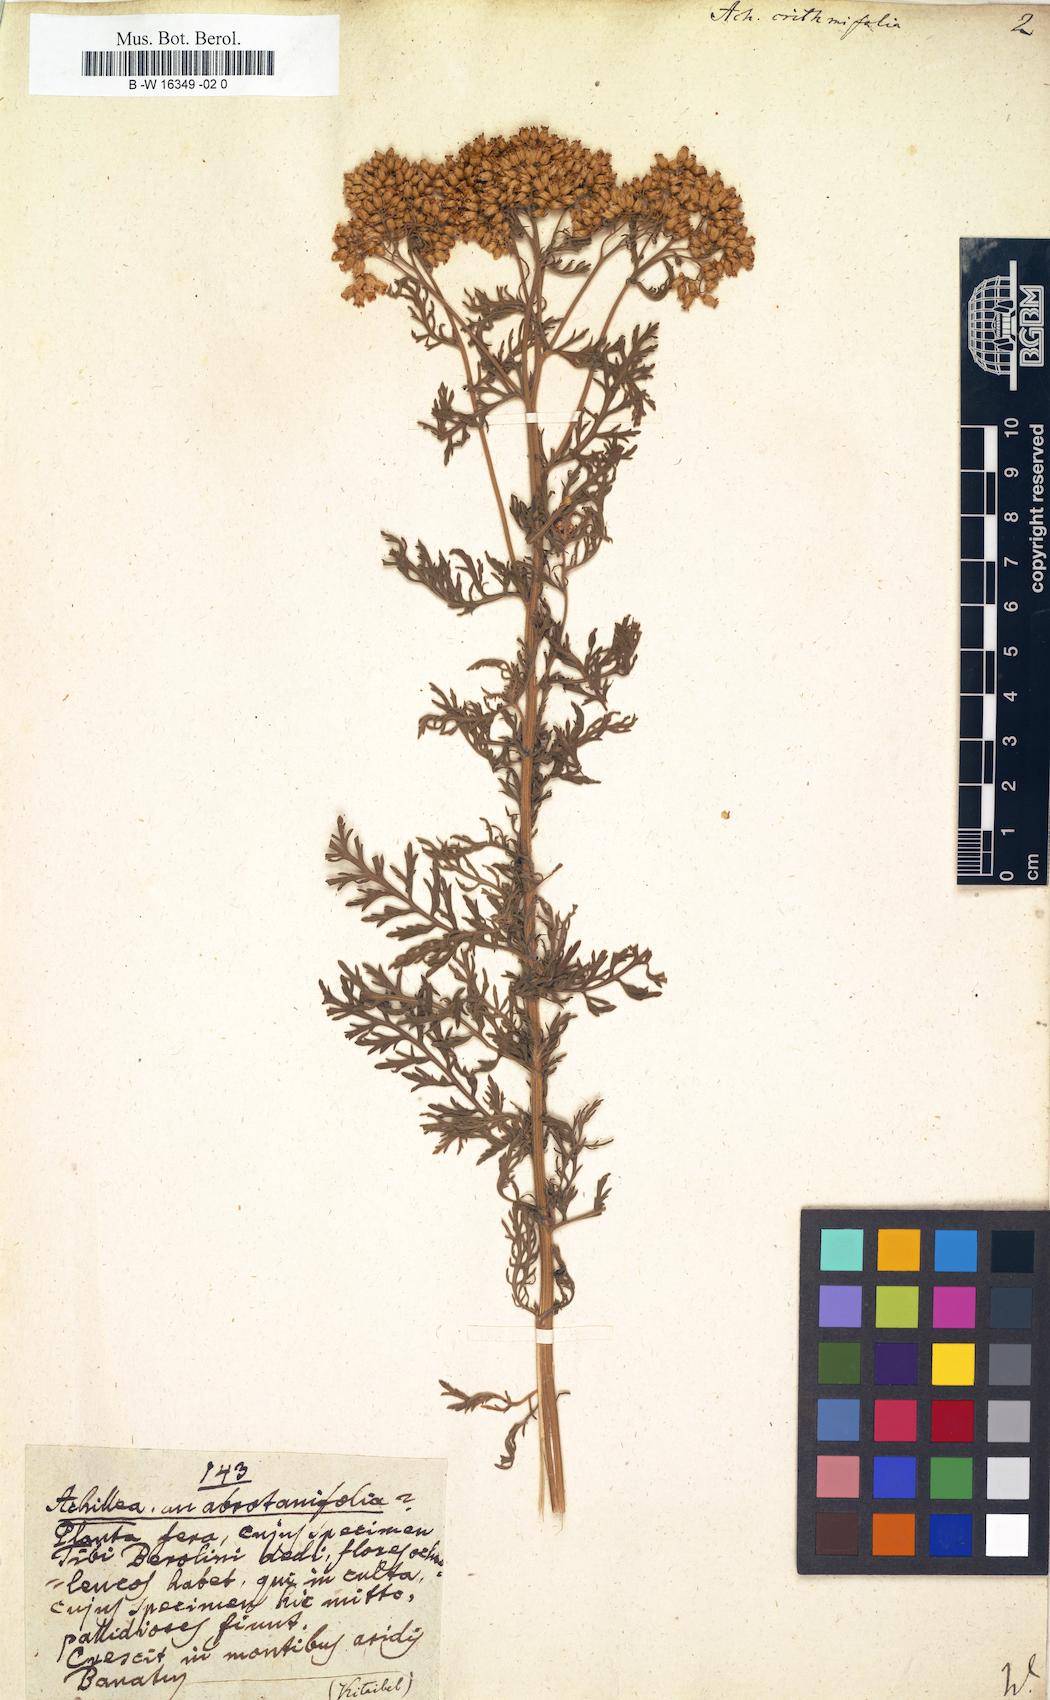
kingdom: Plantae
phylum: Tracheophyta
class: Magnoliopsida
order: Asterales
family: Asteraceae
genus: Achillea
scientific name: Achillea crithmifolia
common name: Yarrow
